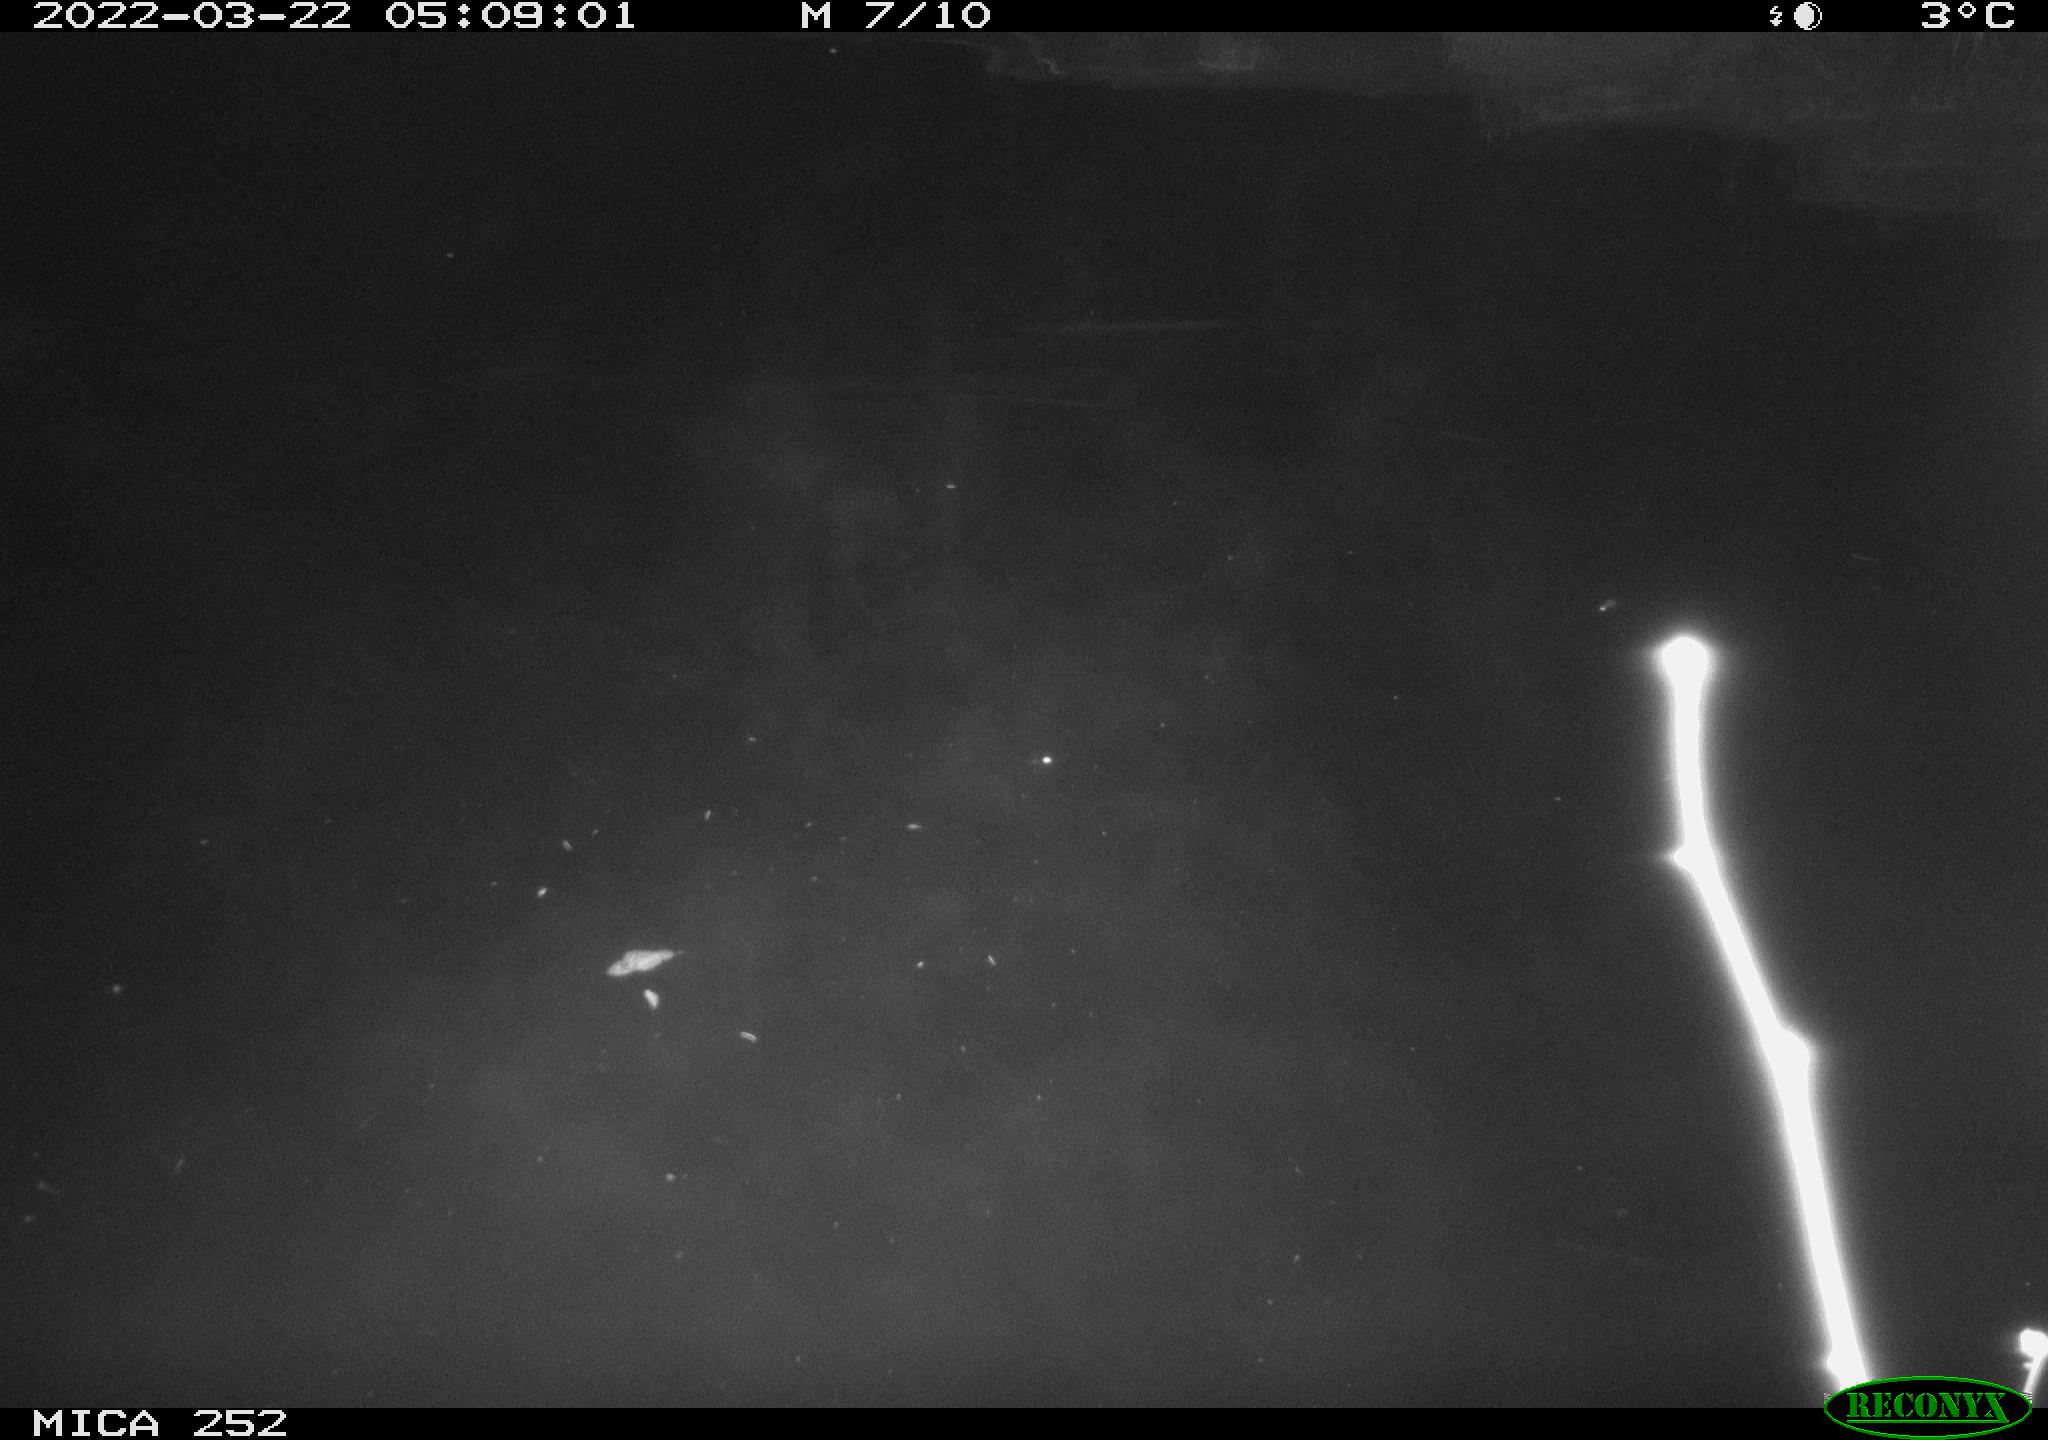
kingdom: Animalia
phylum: Chordata
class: Mammalia
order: Rodentia
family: Castoridae
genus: Castor
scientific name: Castor fiber
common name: Eurasian beaver
